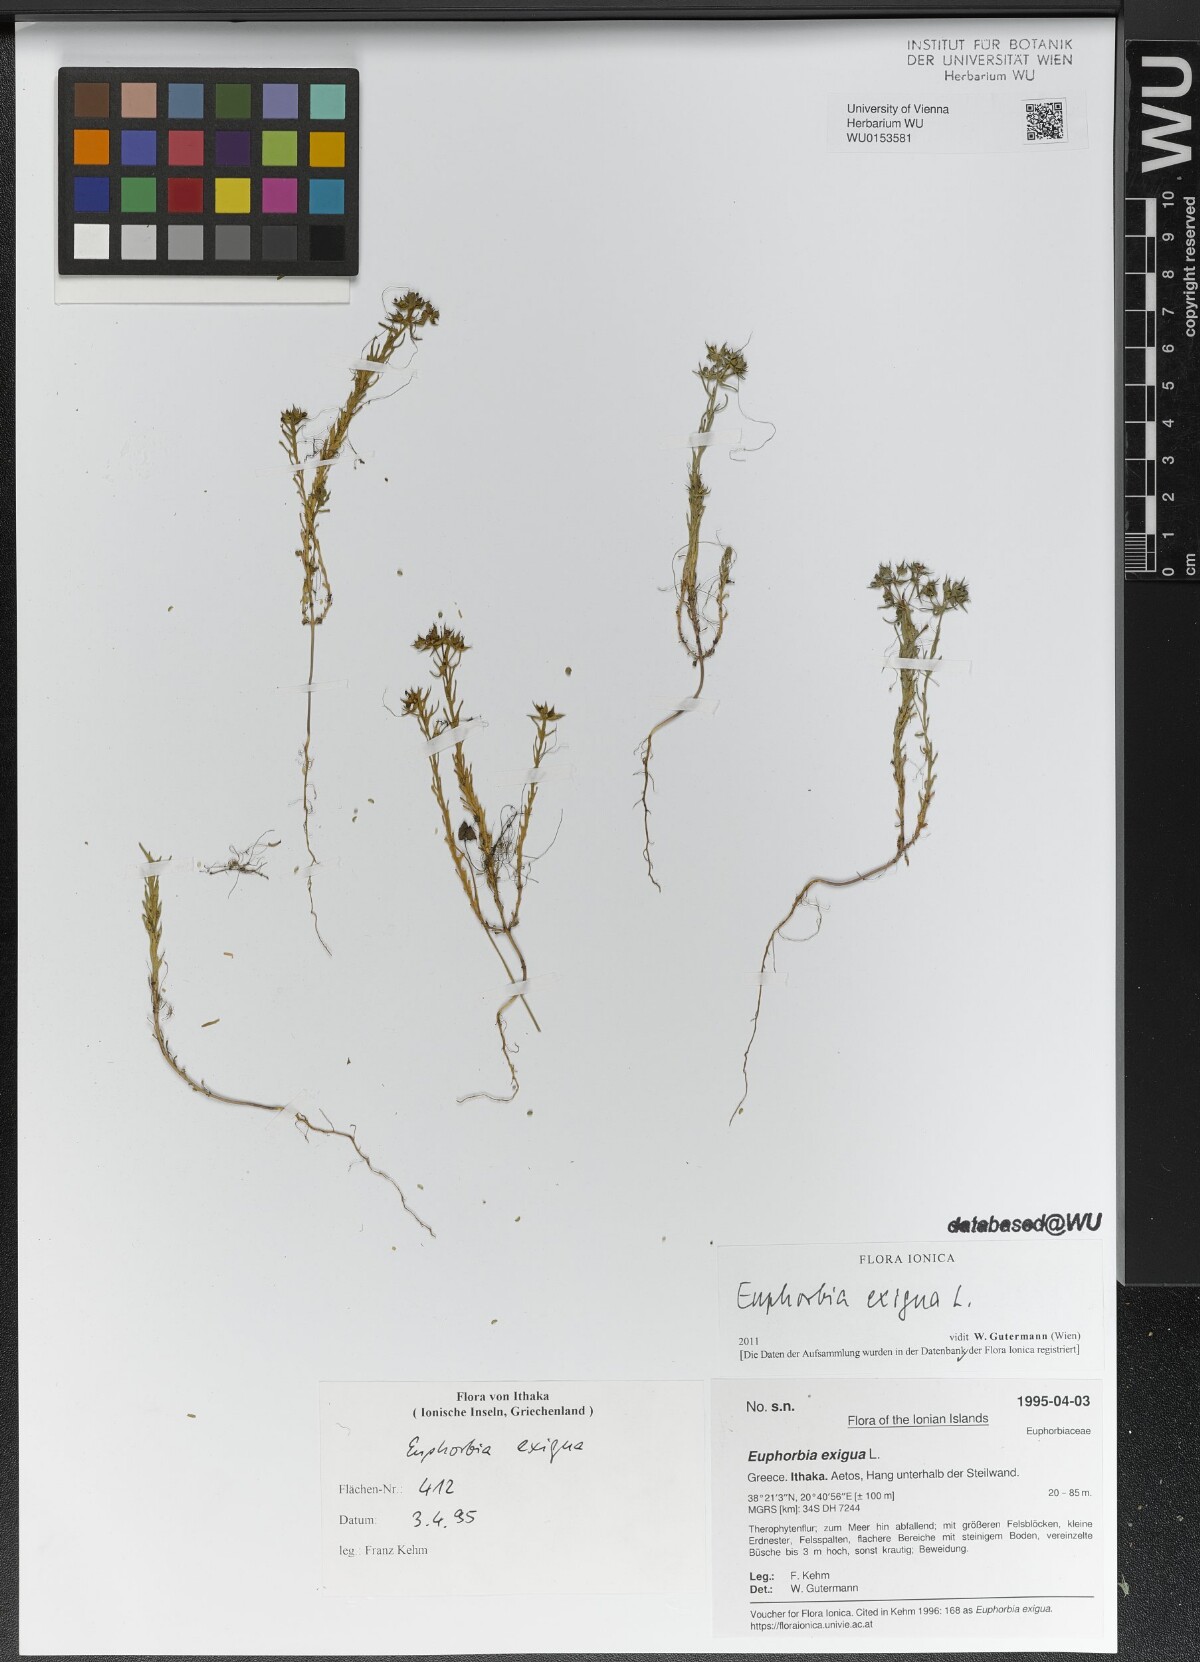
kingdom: Plantae
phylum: Tracheophyta
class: Magnoliopsida
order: Malpighiales
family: Euphorbiaceae
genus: Euphorbia
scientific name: Euphorbia exigua
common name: Dwarf spurge
